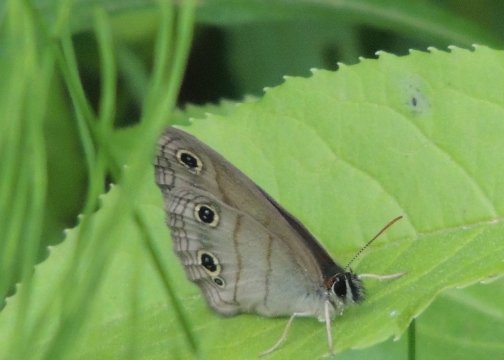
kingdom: Animalia
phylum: Arthropoda
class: Insecta
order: Lepidoptera
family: Nymphalidae
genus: Euptychia
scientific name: Euptychia cymela
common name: Little Wood Satyr
